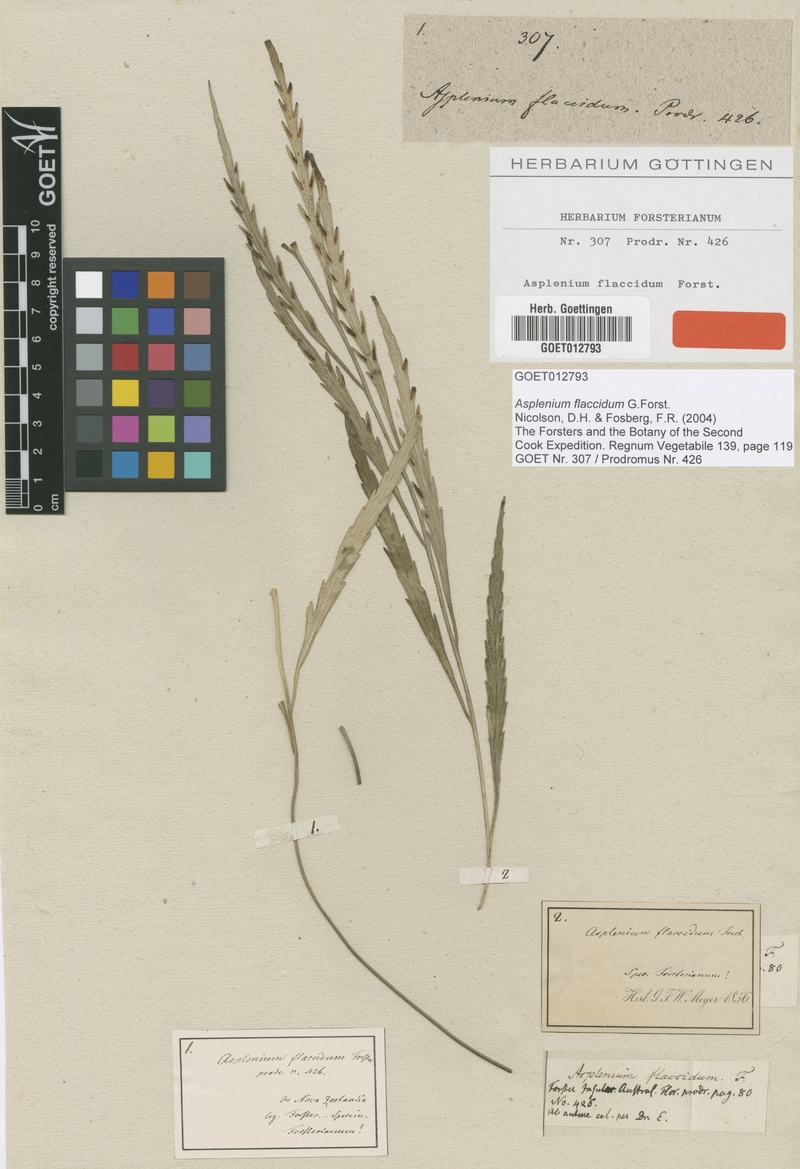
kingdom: Plantae
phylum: Tracheophyta
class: Polypodiopsida
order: Polypodiales
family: Aspleniaceae
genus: Asplenium
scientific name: Asplenium flaccidum
